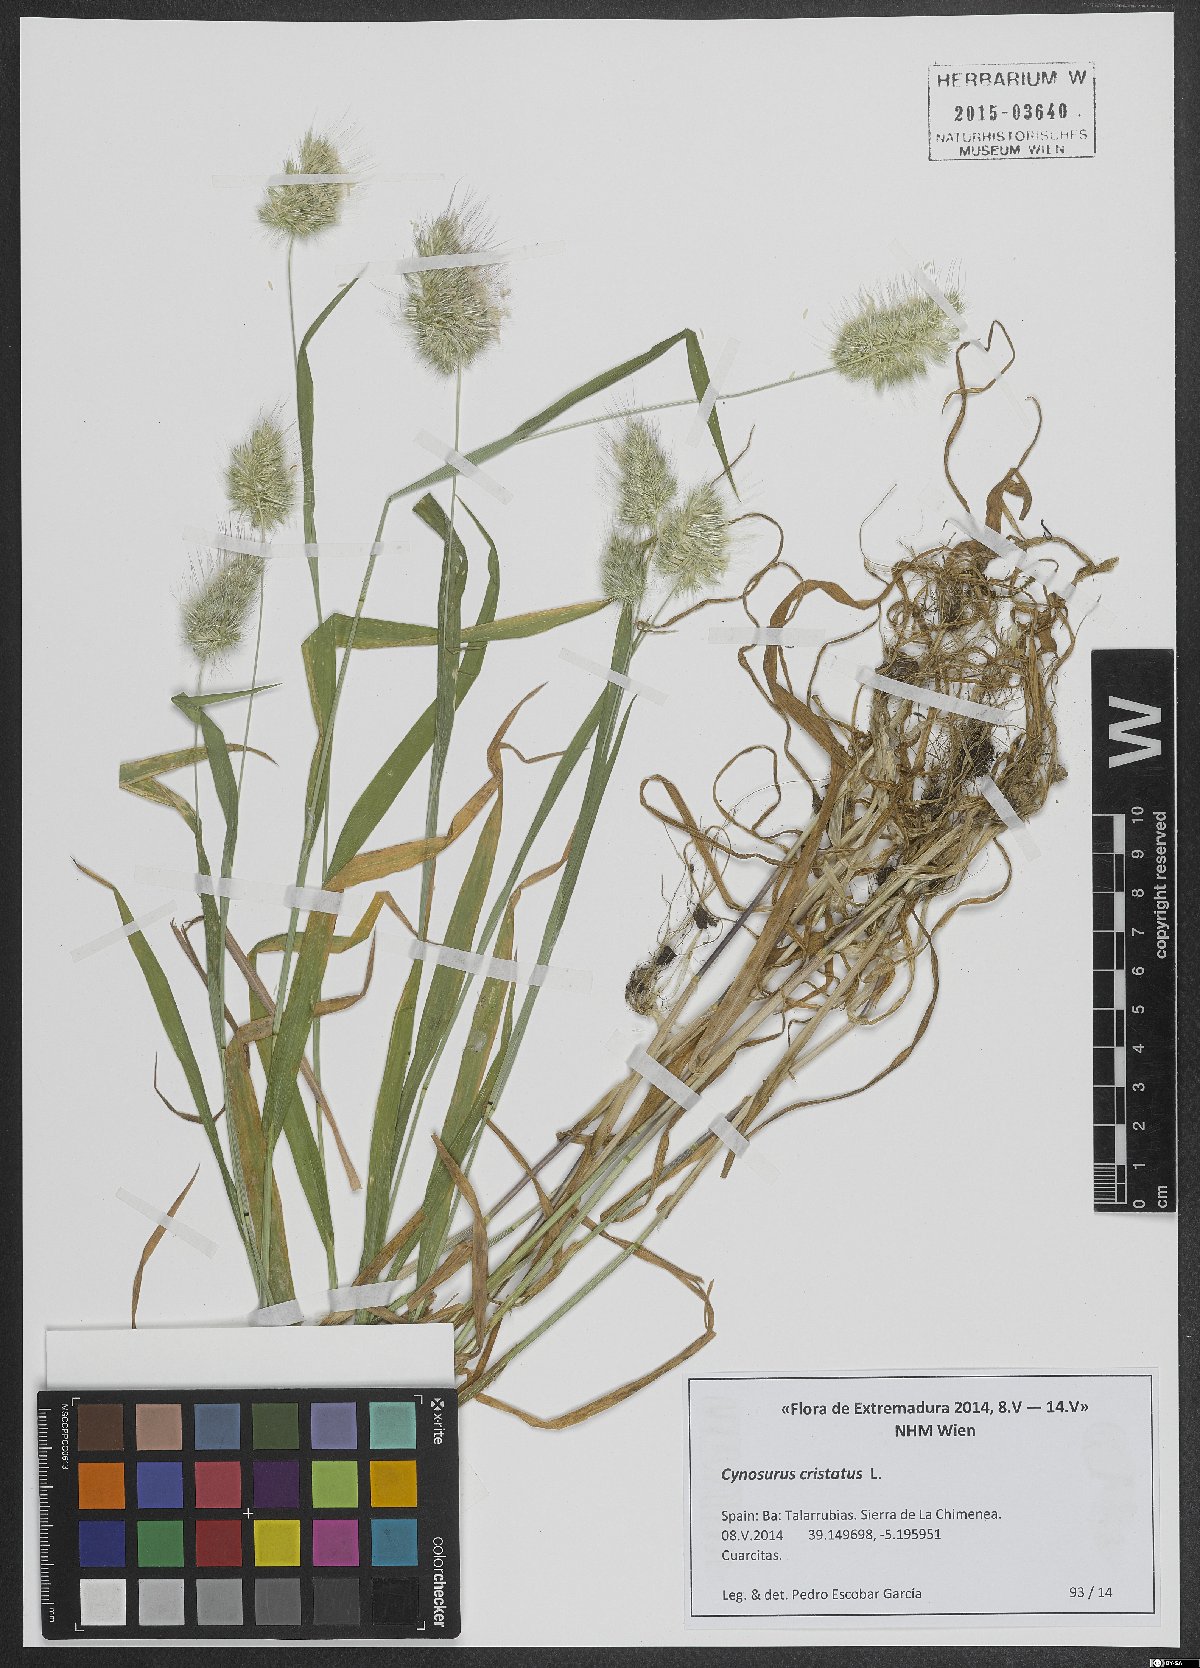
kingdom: Plantae
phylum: Tracheophyta
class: Liliopsida
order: Poales
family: Poaceae
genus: Cynosurus
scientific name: Cynosurus cristatus
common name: Crested dog's-tail
